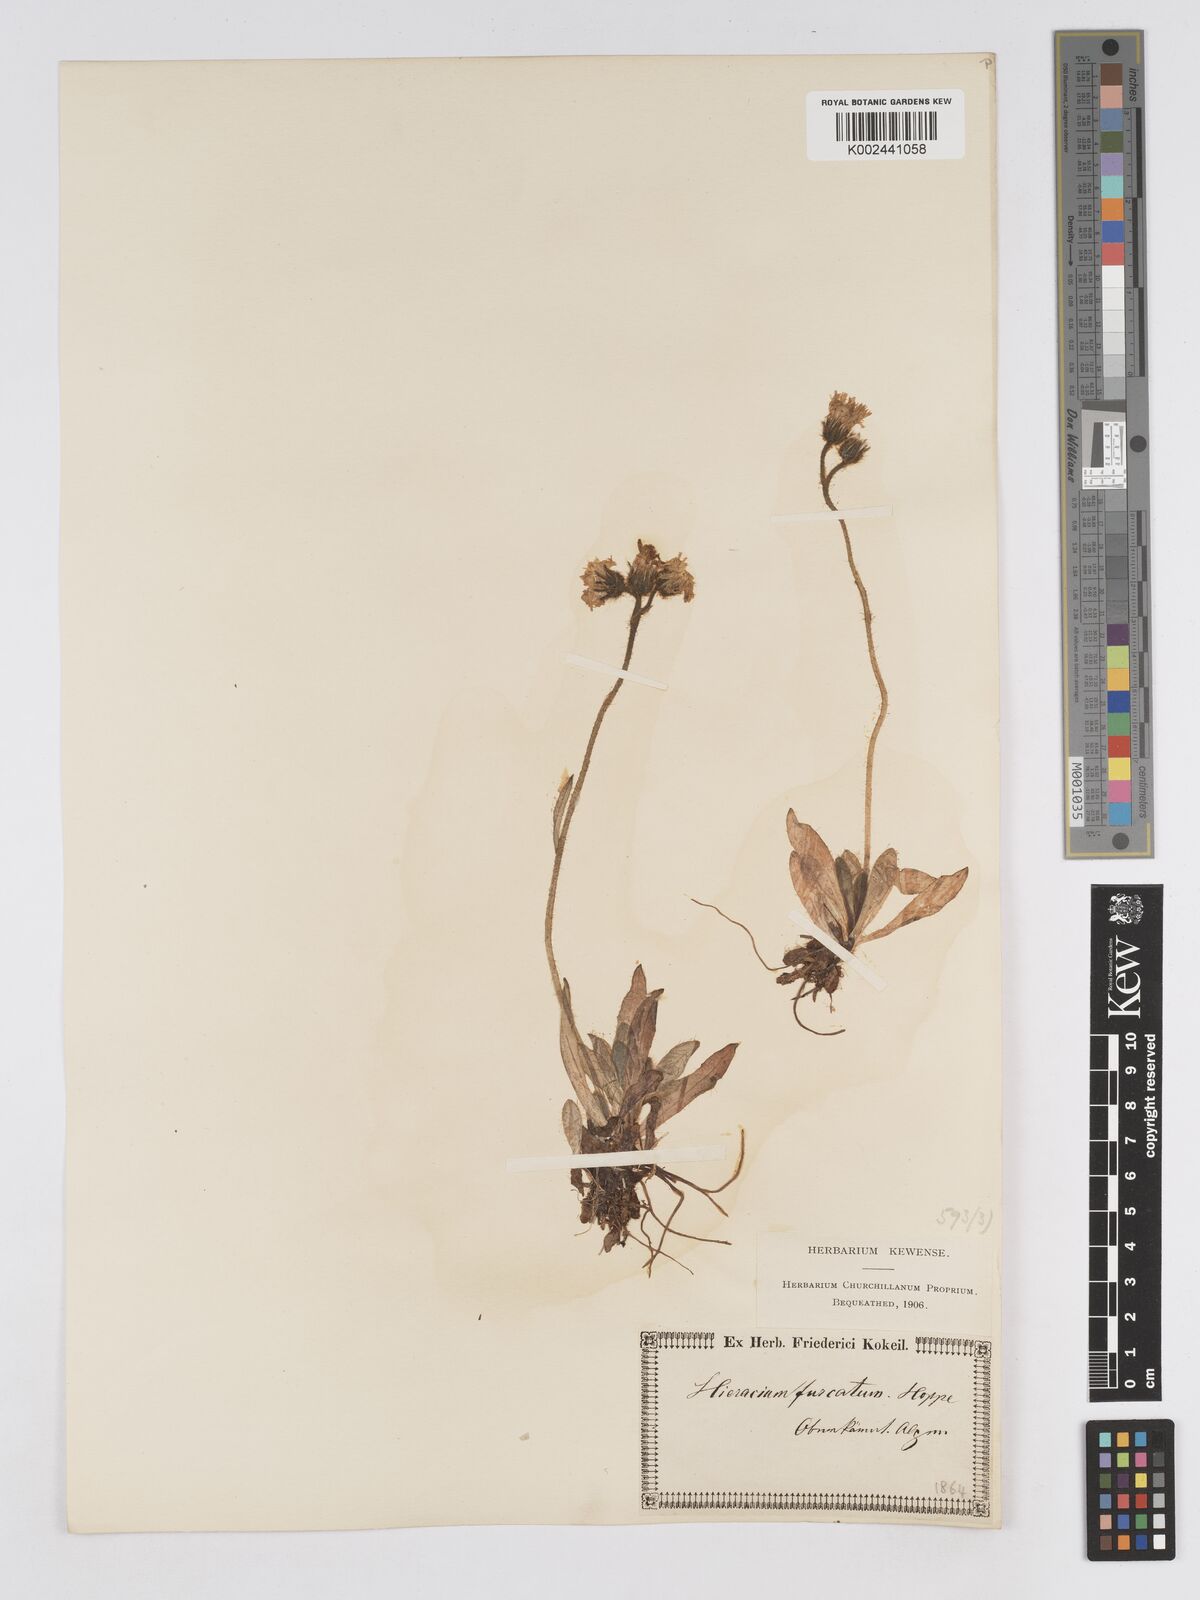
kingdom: Plantae
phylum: Tracheophyta
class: Magnoliopsida
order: Asterales
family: Asteraceae
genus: Pilosella
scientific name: Pilosella sphaerocephala
